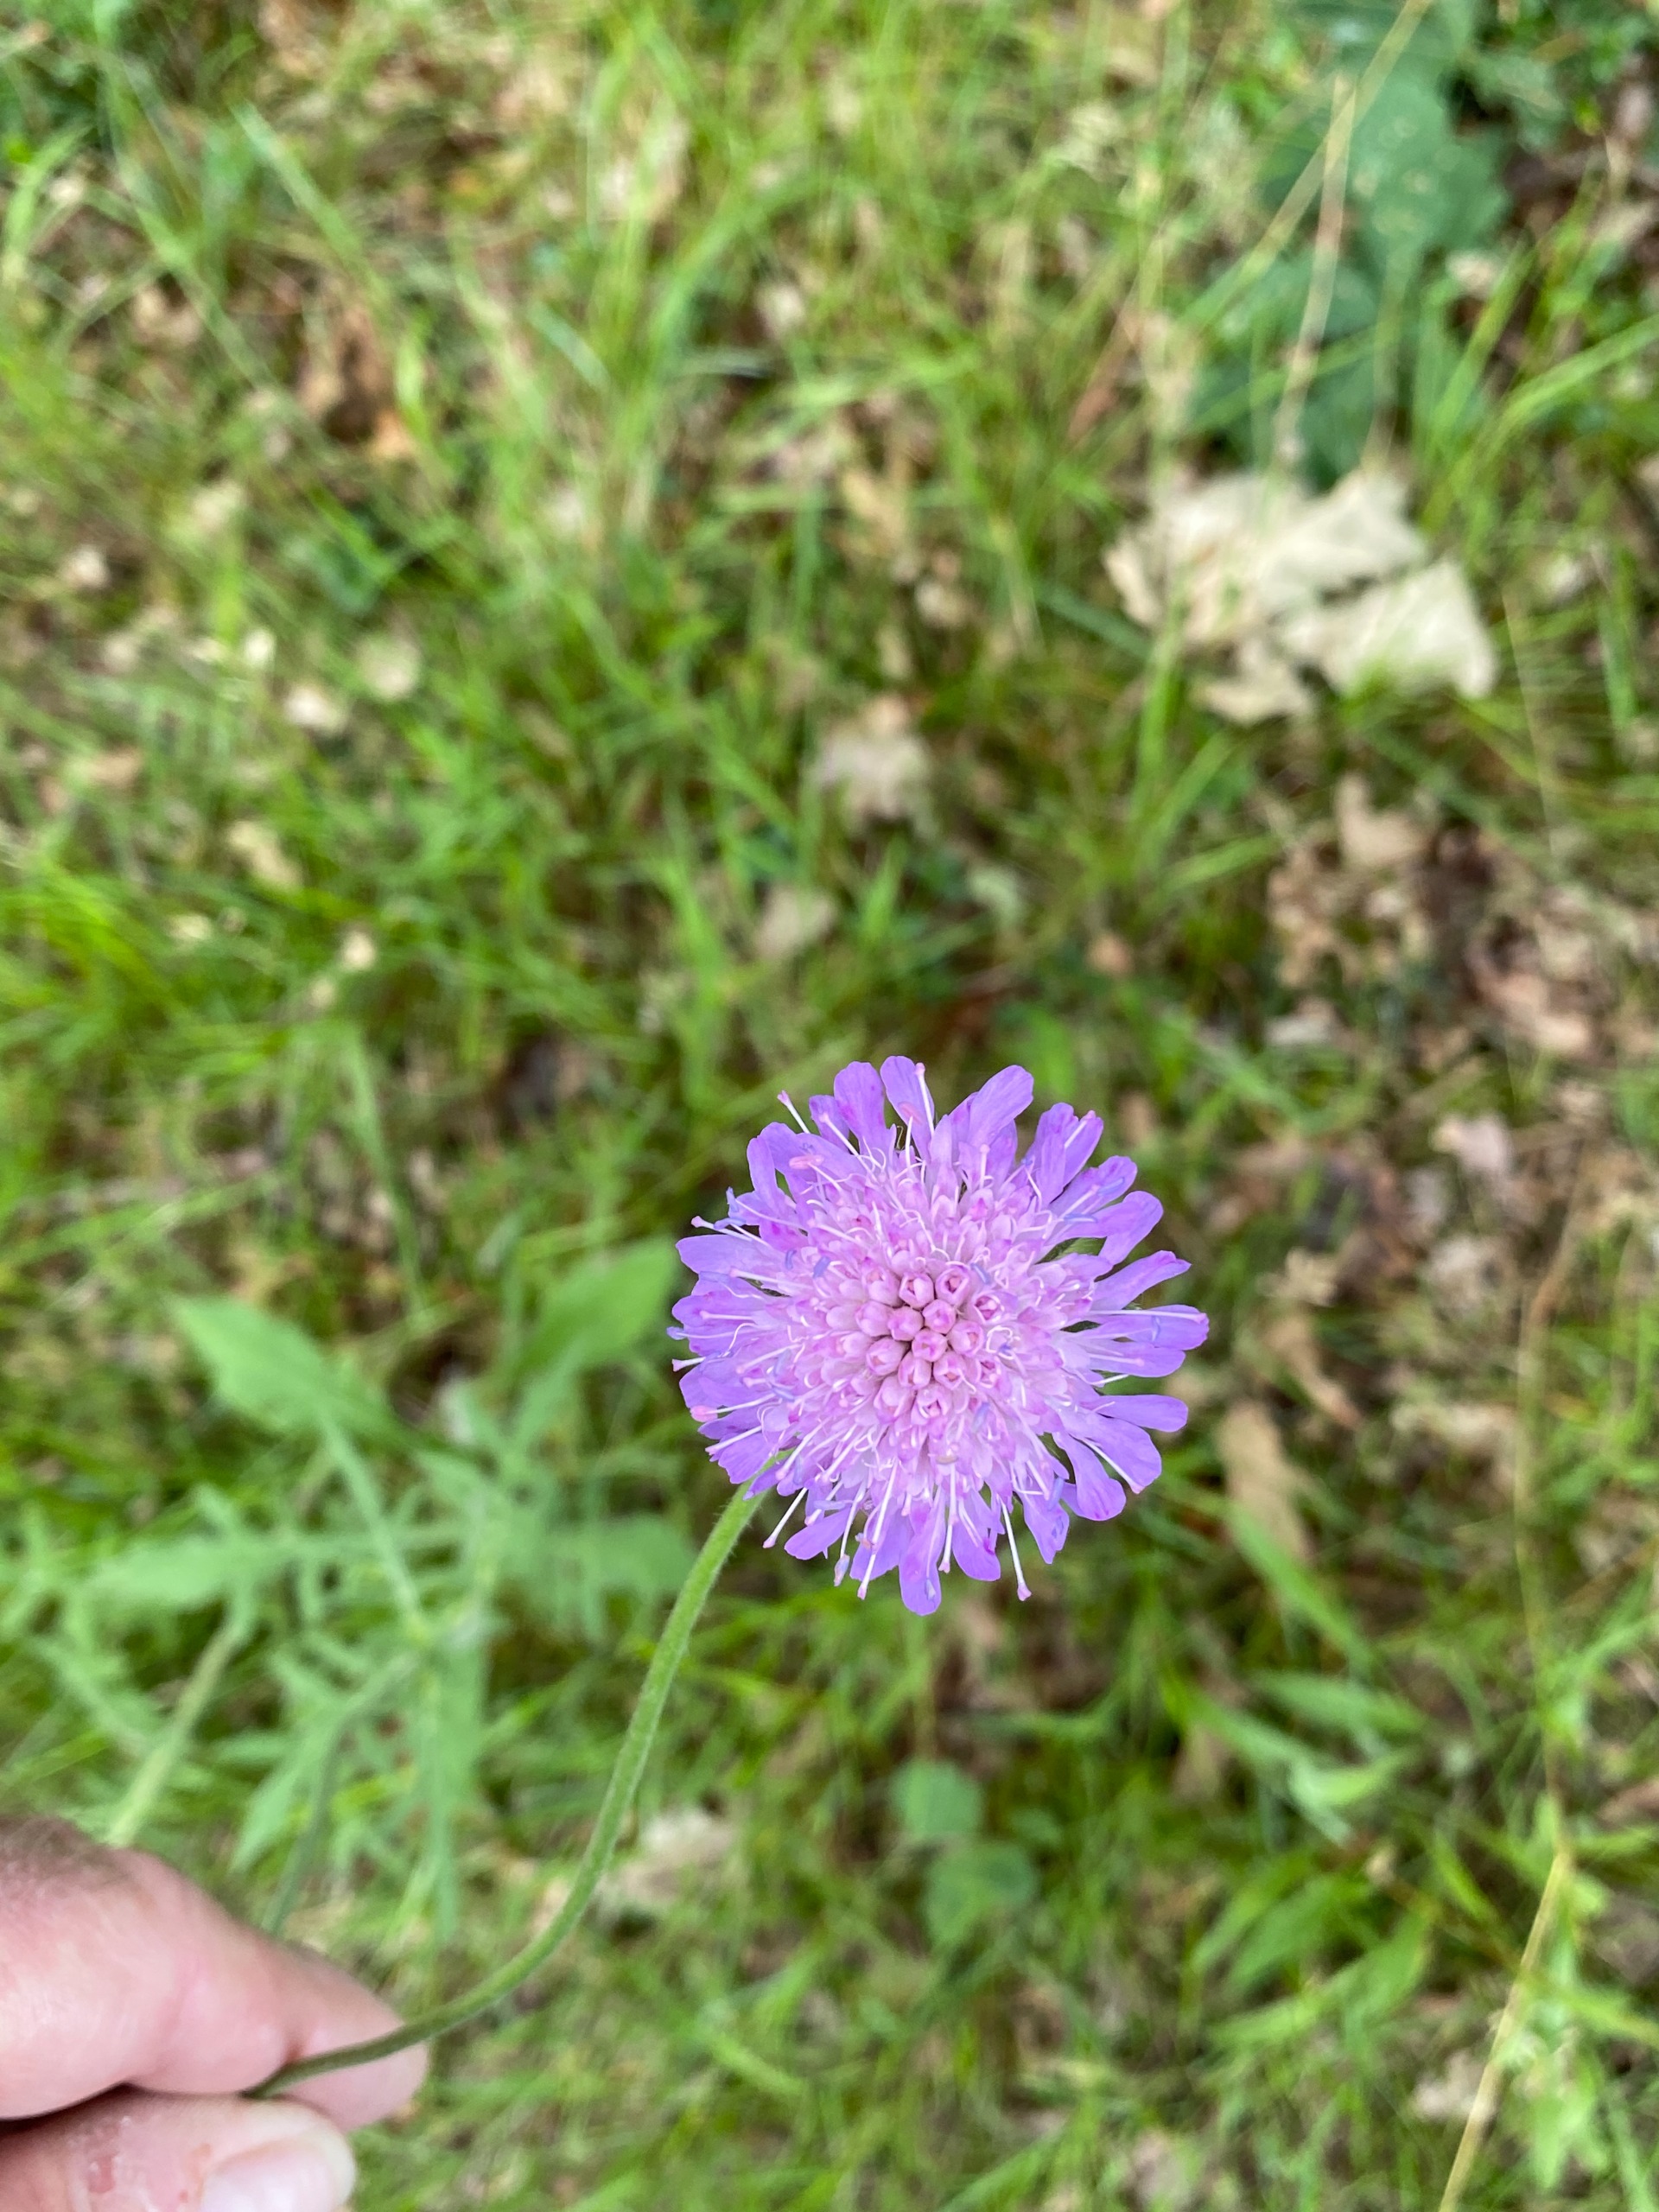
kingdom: Plantae
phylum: Tracheophyta
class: Magnoliopsida
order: Dipsacales
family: Caprifoliaceae
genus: Knautia
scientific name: Knautia arvensis
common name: Blåhat
